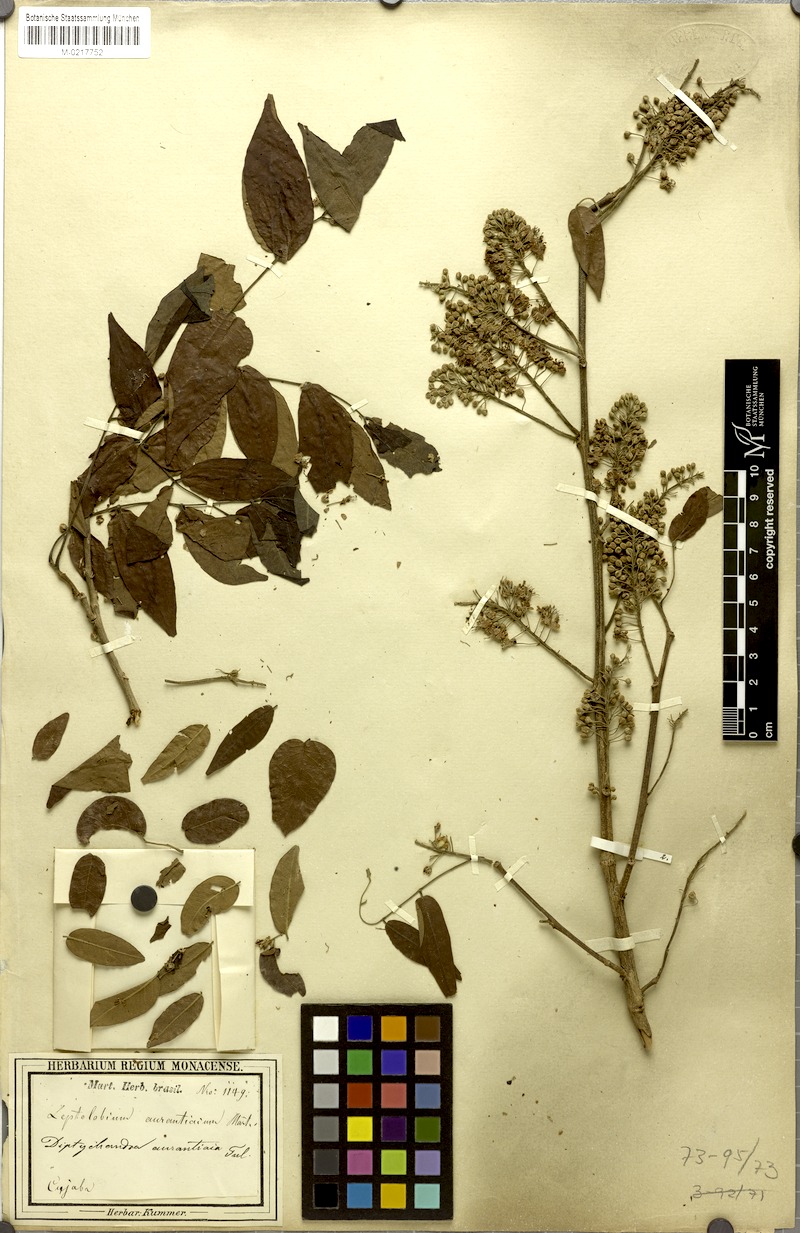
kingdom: Plantae
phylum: Tracheophyta
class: Magnoliopsida
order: Fabales
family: Fabaceae
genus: Diptychandra
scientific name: Diptychandra aurantiaca
